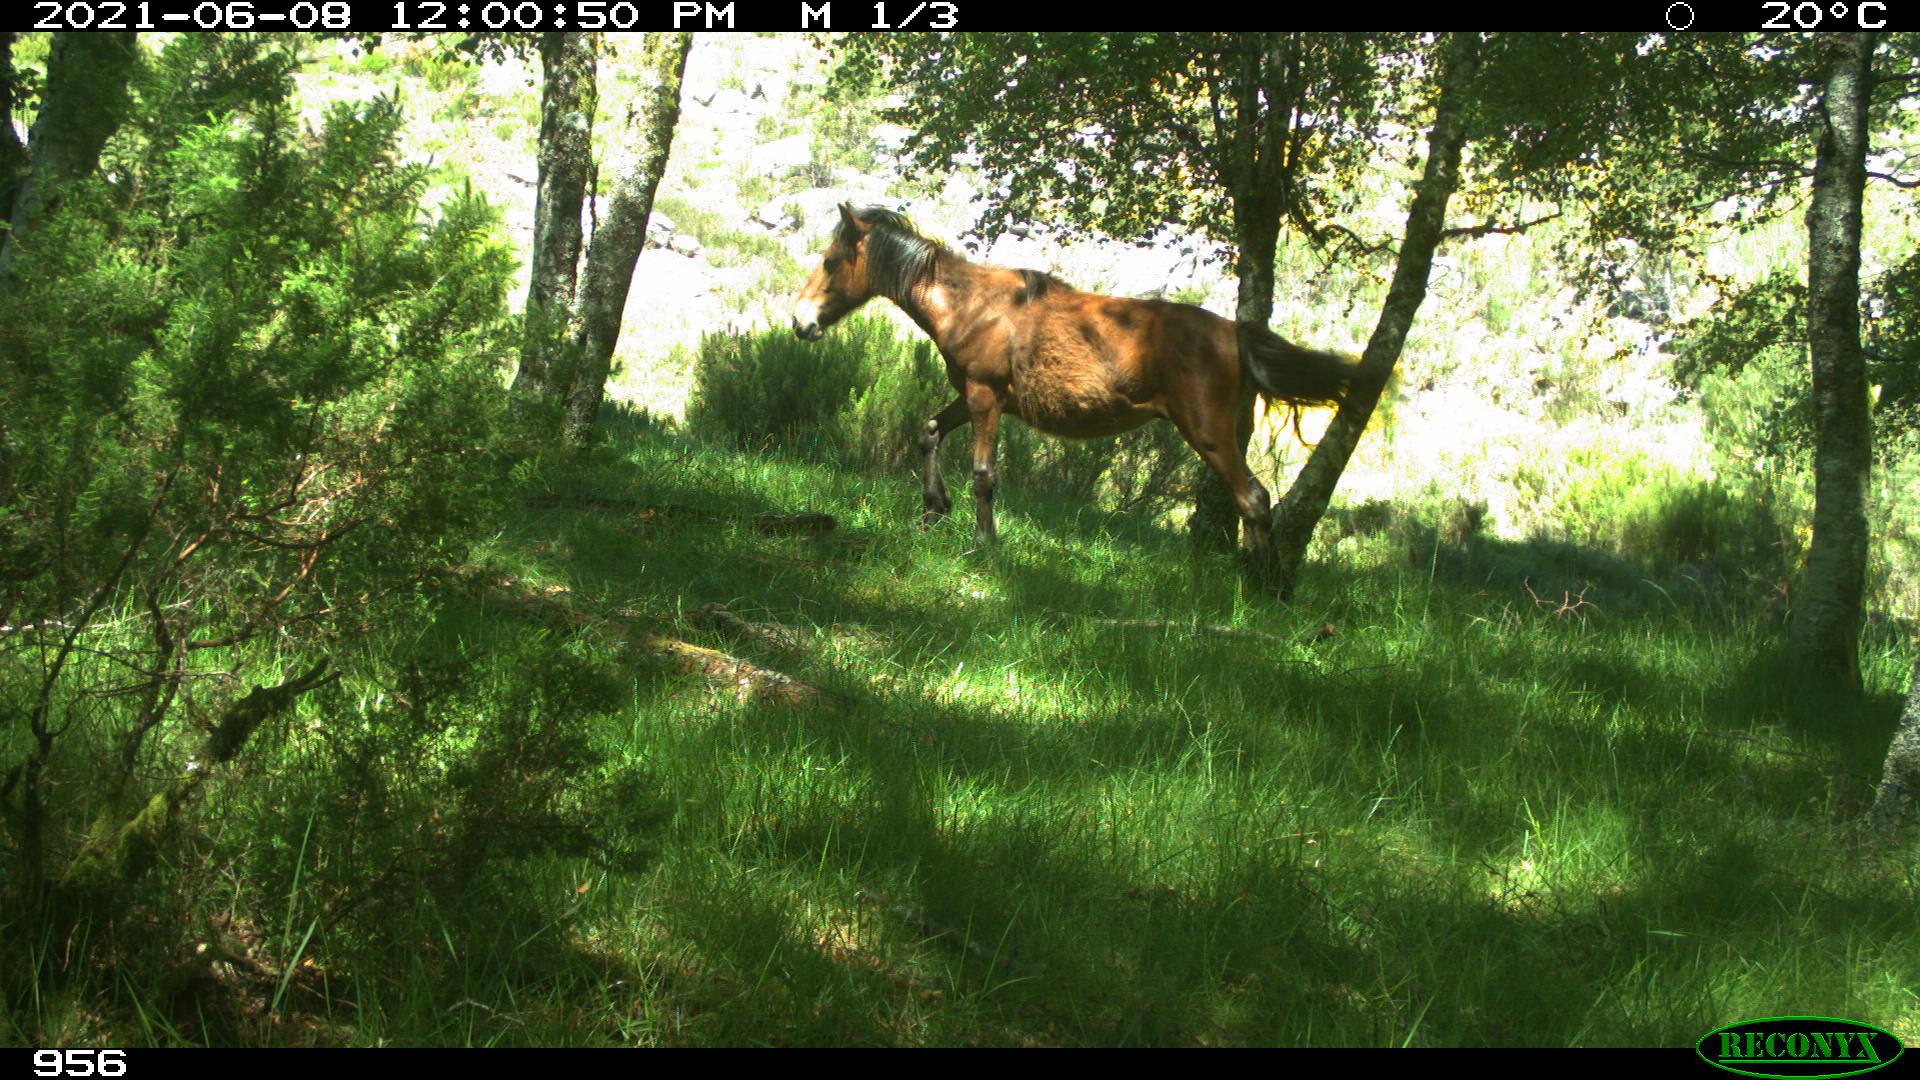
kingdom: Animalia
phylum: Chordata
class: Mammalia
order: Perissodactyla
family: Equidae
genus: Equus
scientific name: Equus caballus
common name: Horse
